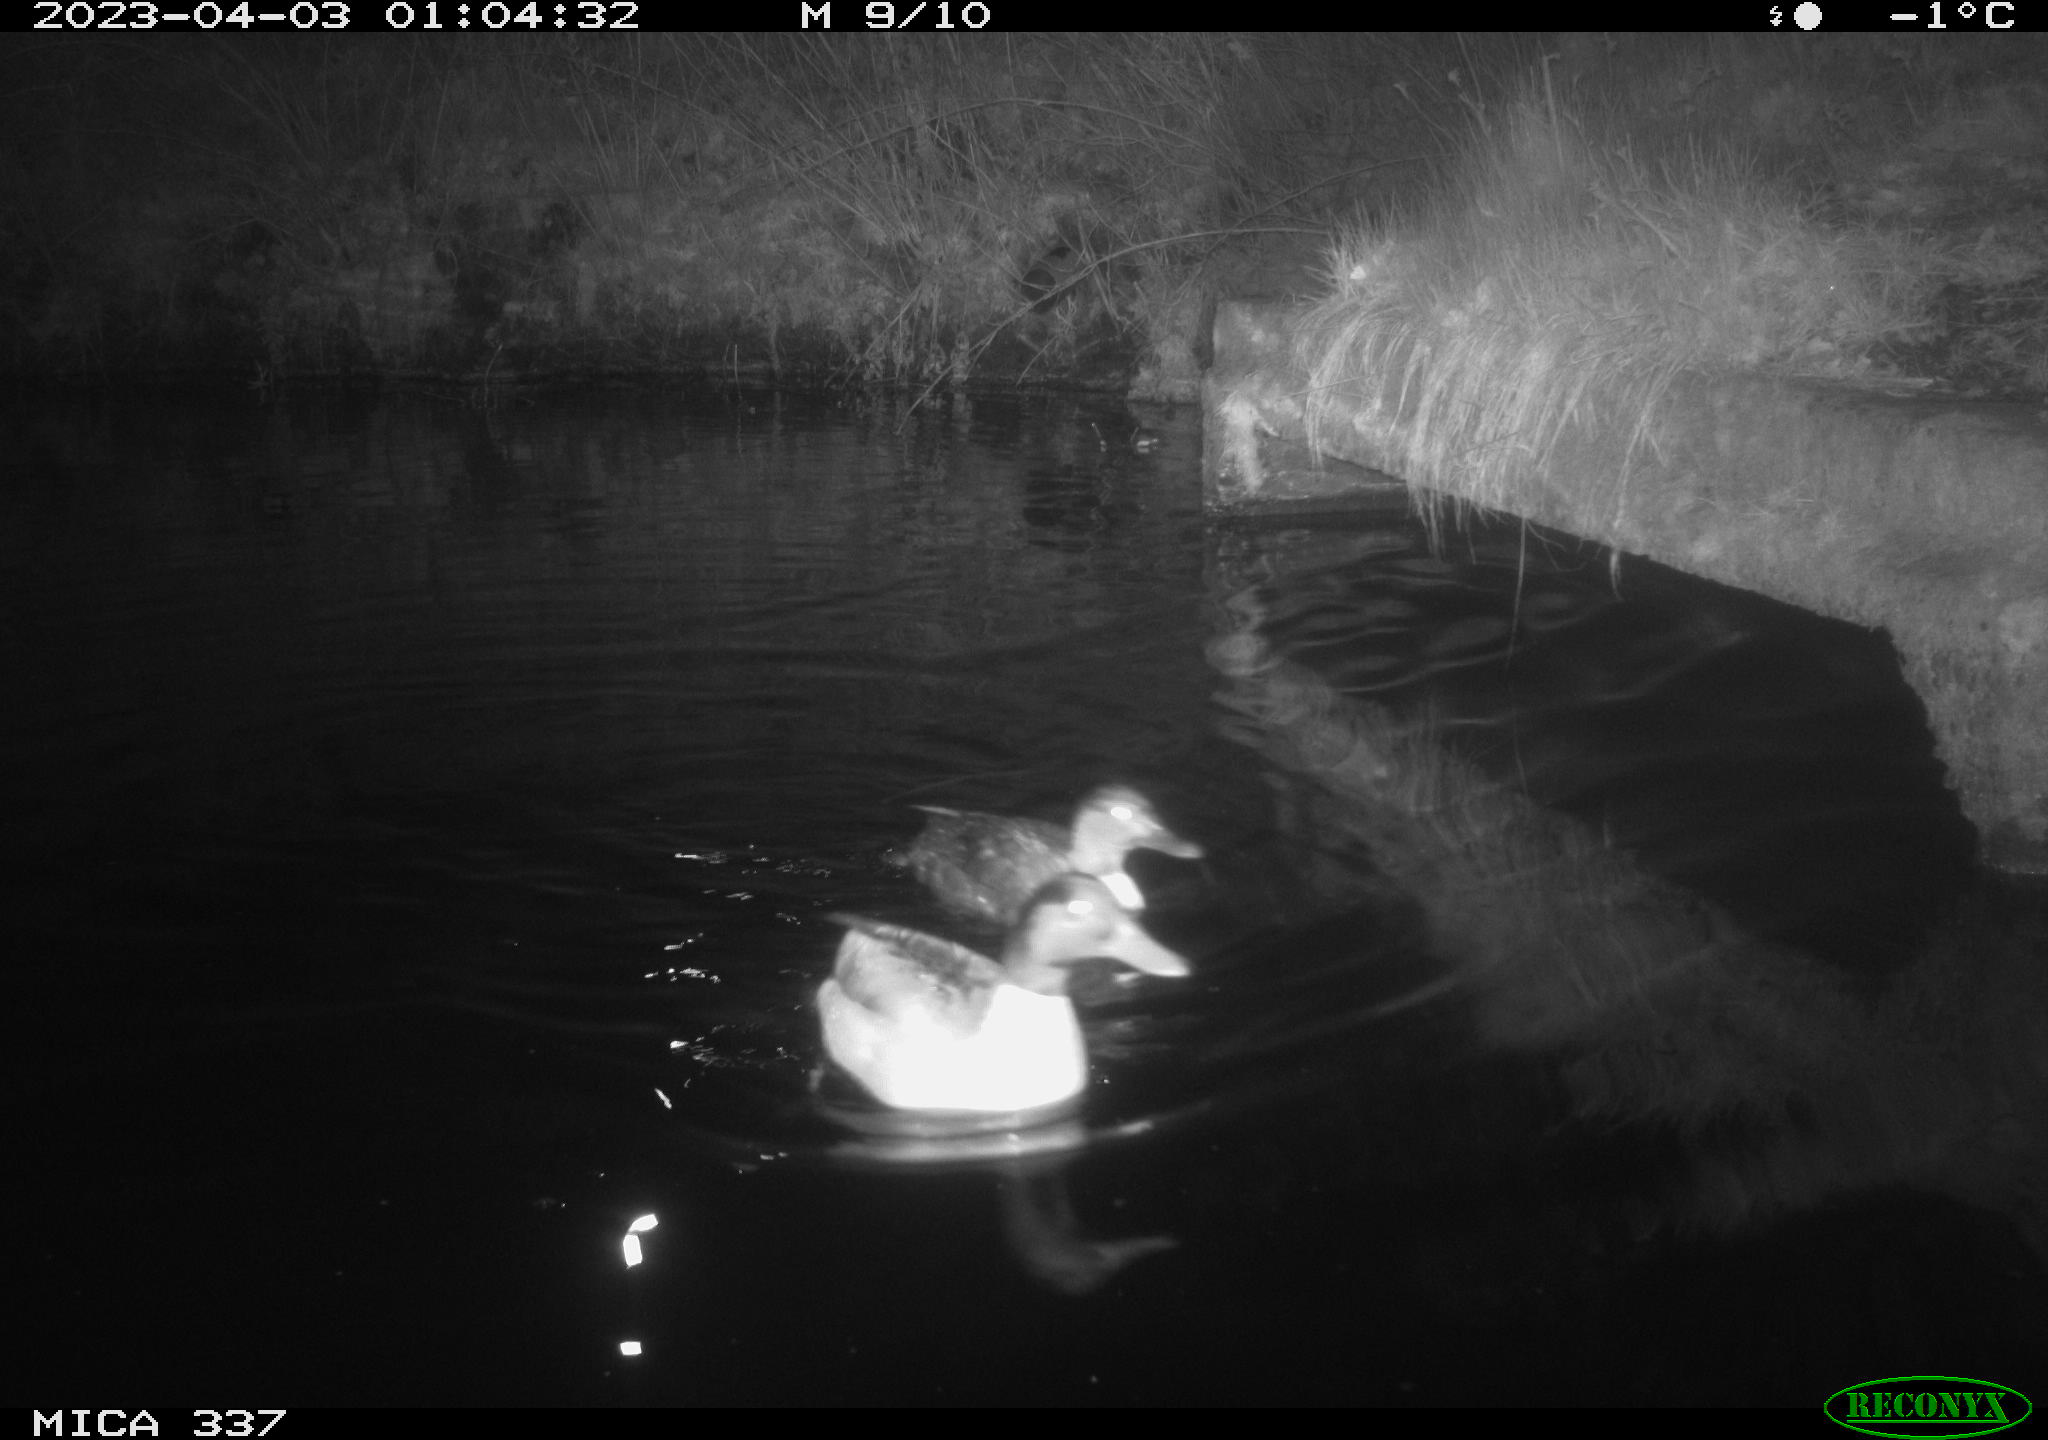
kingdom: Animalia
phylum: Chordata
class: Aves
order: Anseriformes
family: Anatidae
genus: Anas
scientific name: Anas platyrhynchos
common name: Mallard
